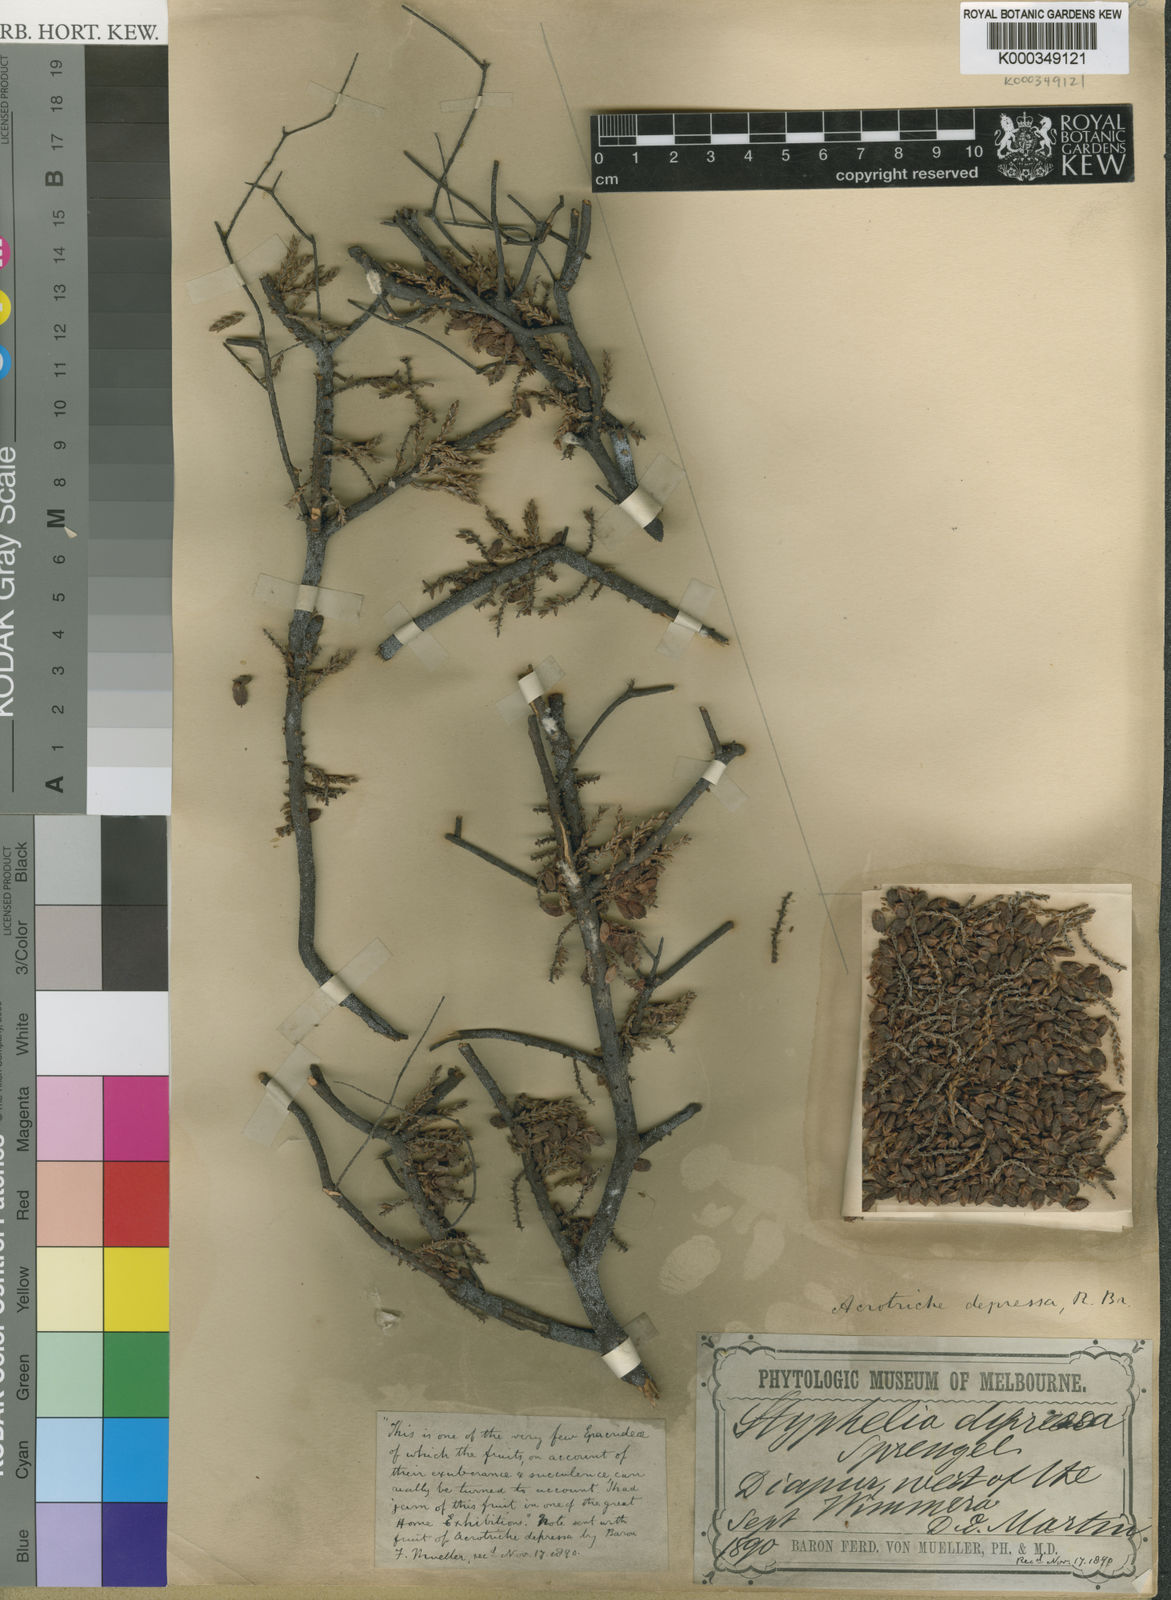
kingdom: Plantae
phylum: Tracheophyta
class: Magnoliopsida
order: Ericales
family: Ericaceae
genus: Acrotriche
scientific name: Acrotriche depressa
